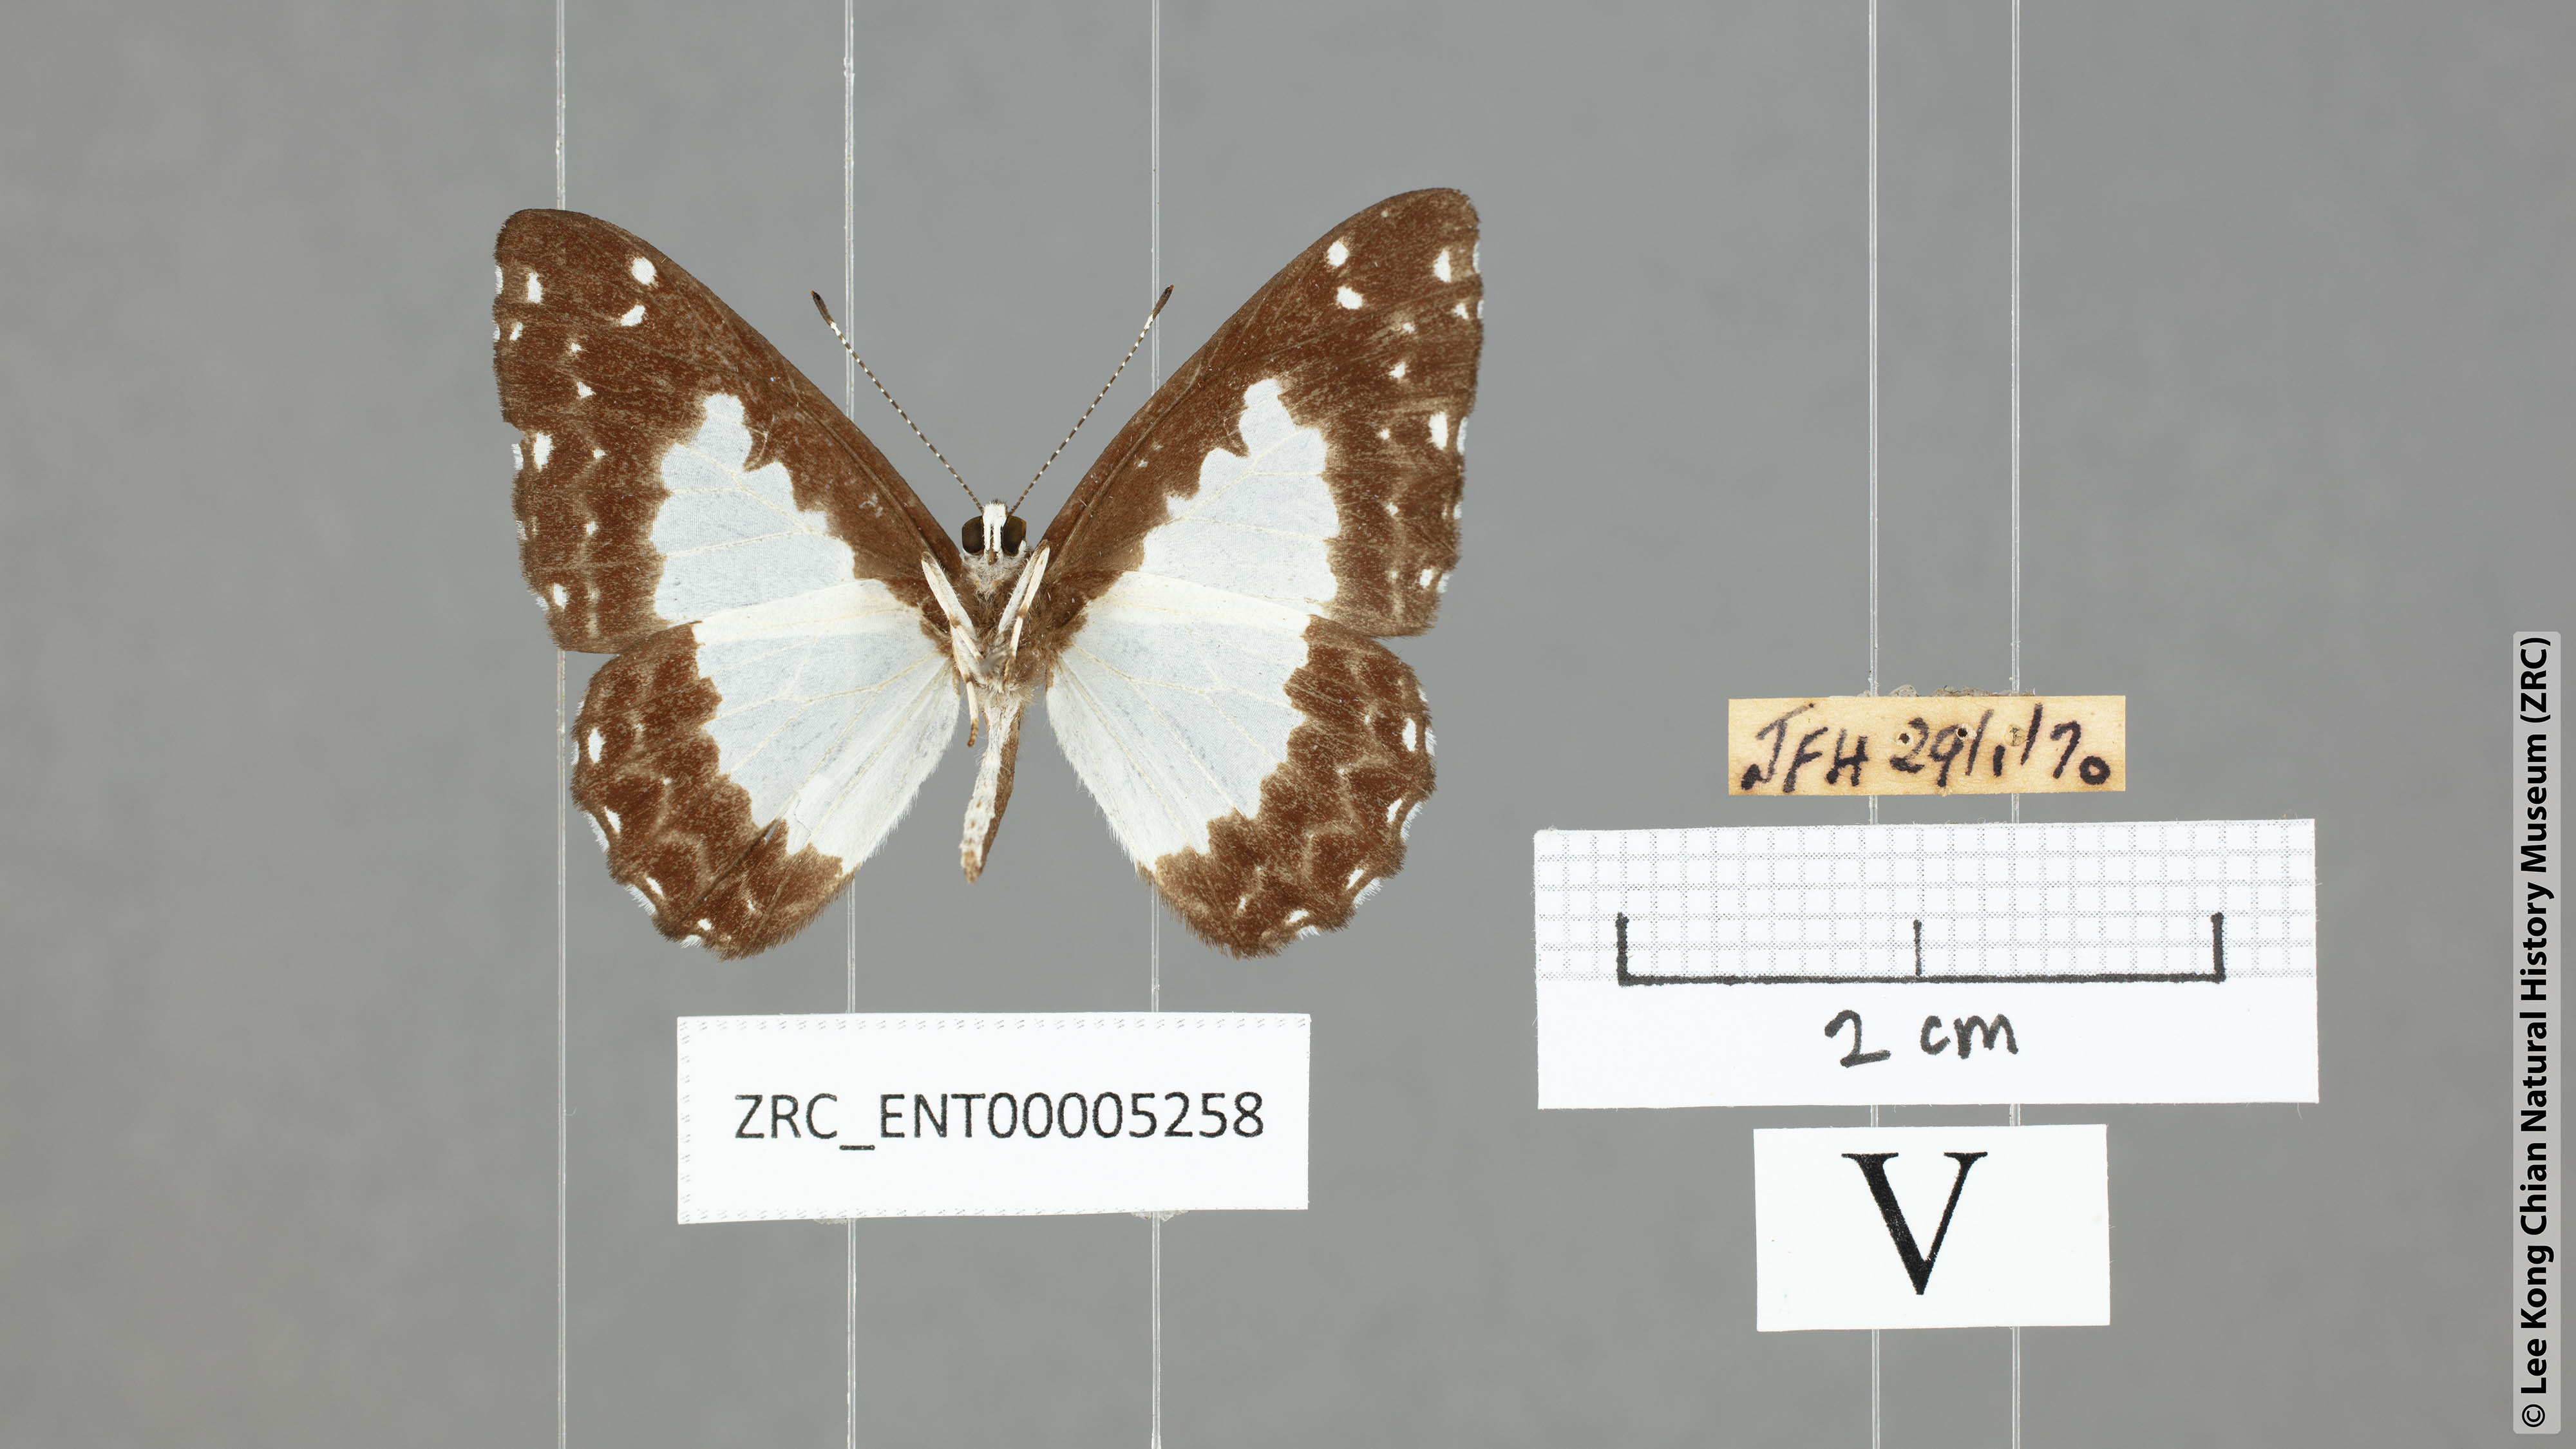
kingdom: Animalia
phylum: Arthropoda
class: Insecta
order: Lepidoptera
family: Riodinidae
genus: Stiboges
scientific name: Stiboges nymphidia
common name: Columbine
